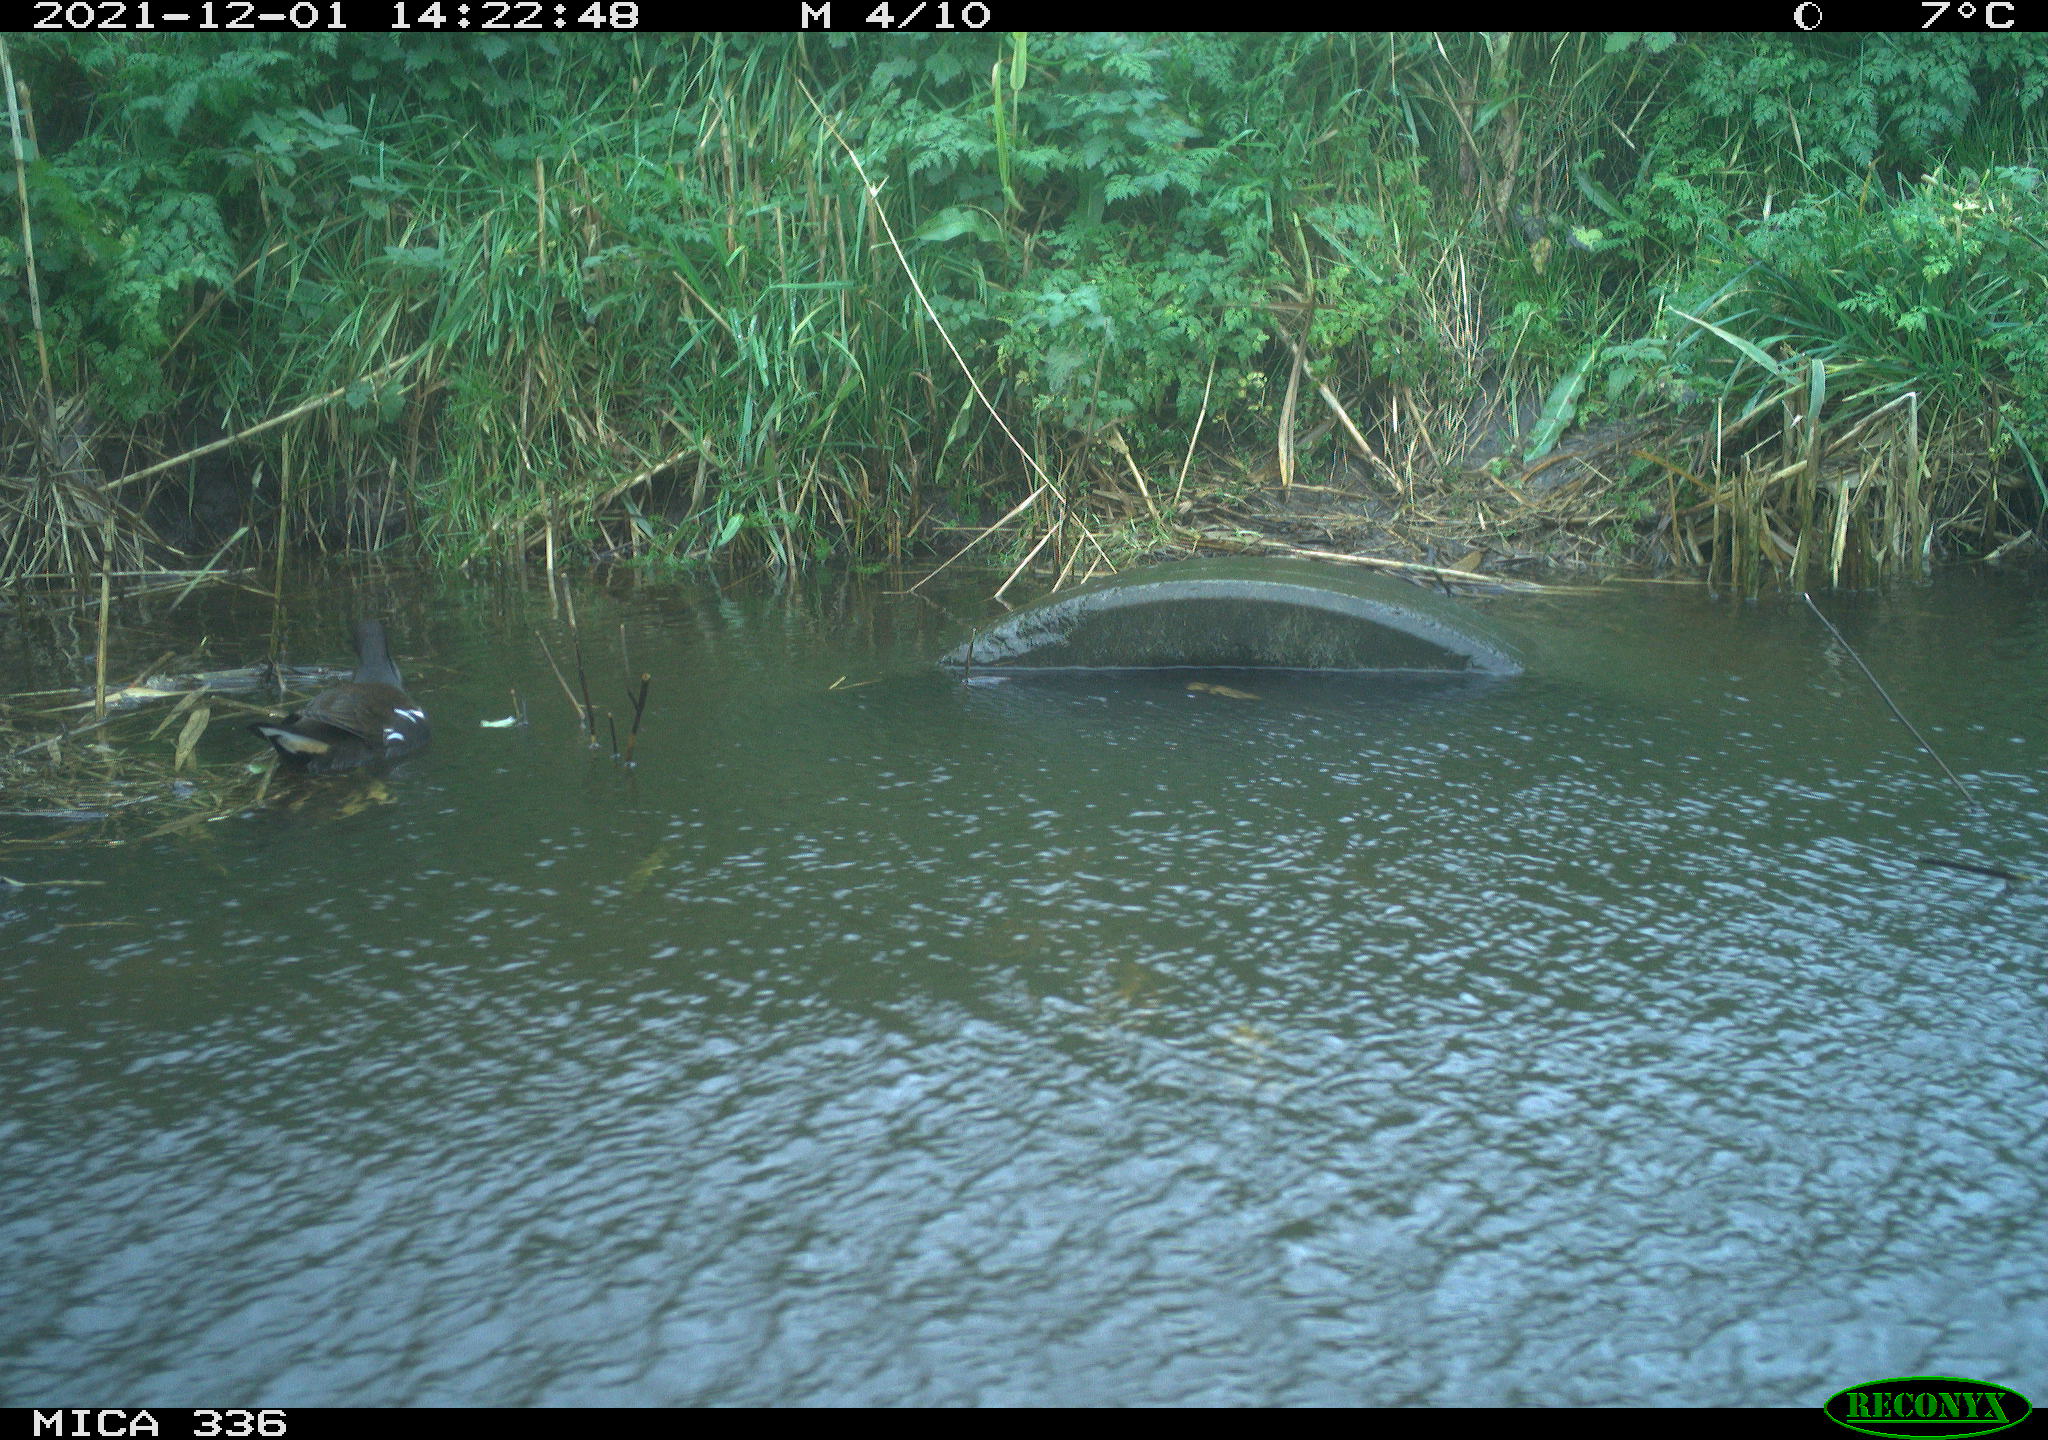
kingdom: Animalia
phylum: Chordata
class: Aves
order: Gruiformes
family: Rallidae
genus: Gallinula
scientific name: Gallinula chloropus
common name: Common moorhen
